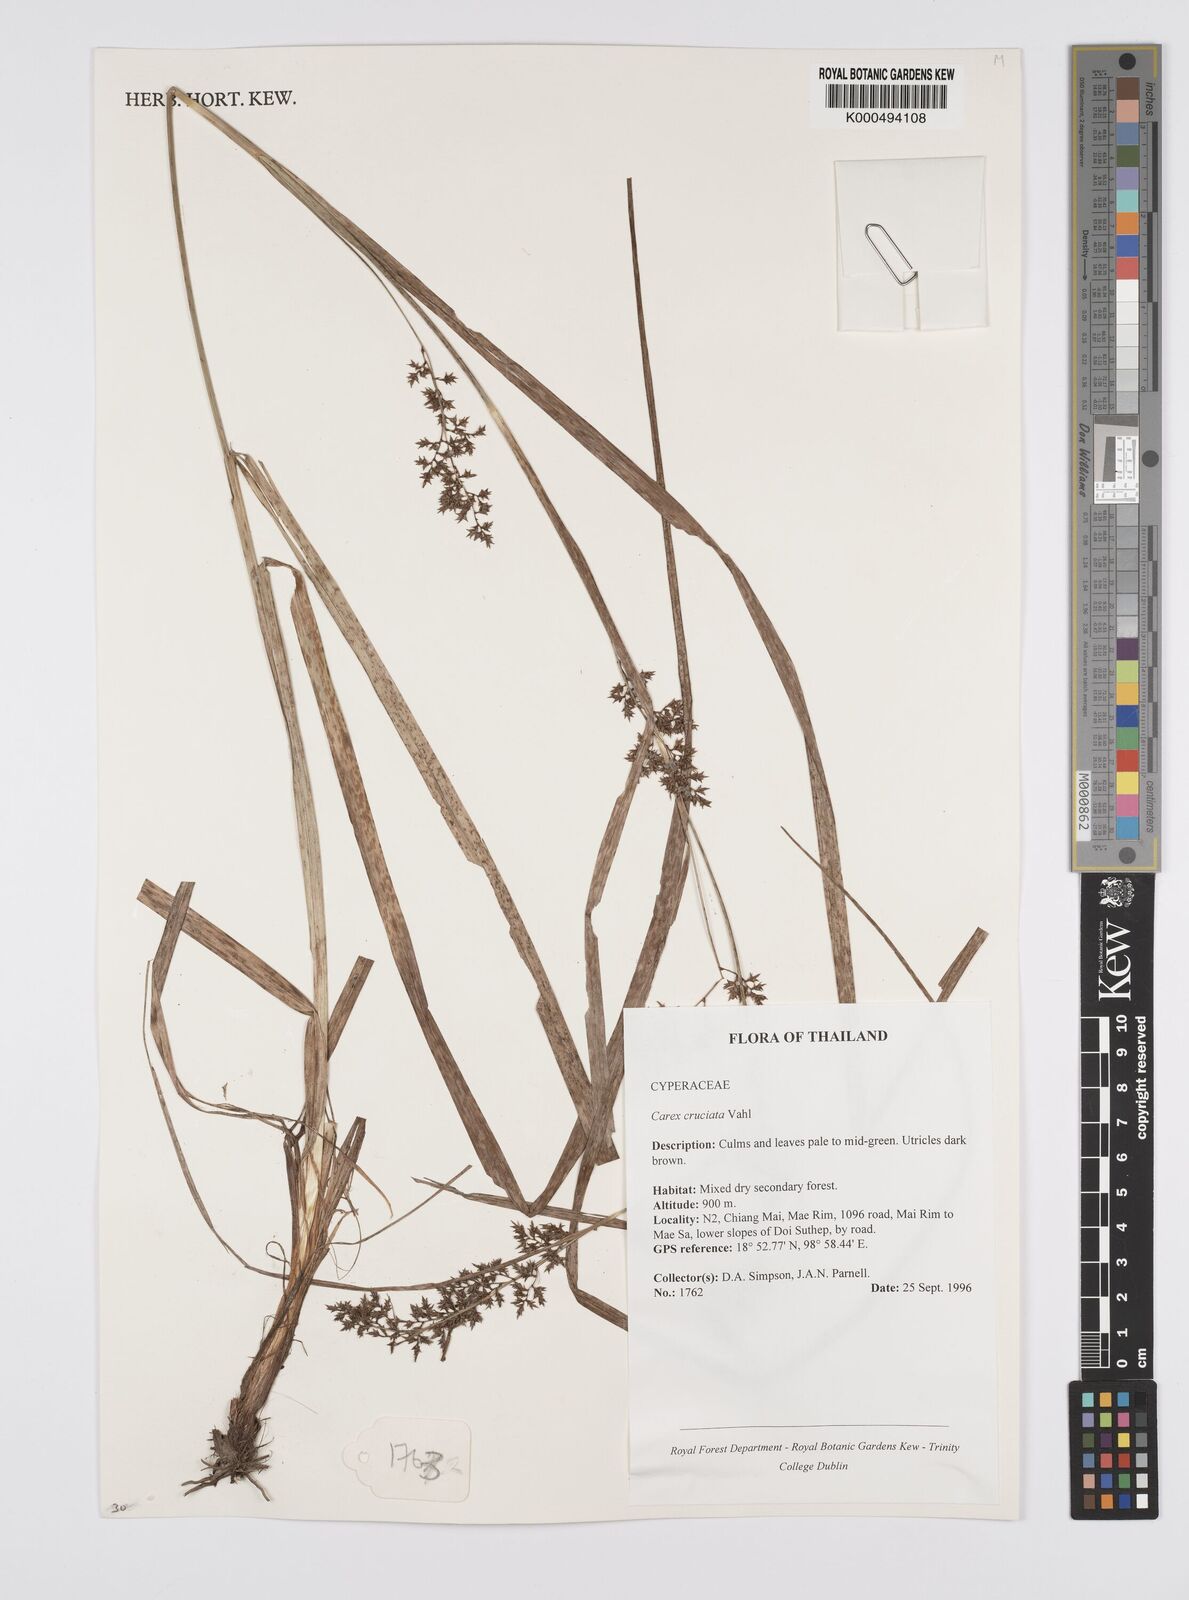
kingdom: Plantae
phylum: Tracheophyta
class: Liliopsida
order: Poales
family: Cyperaceae
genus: Carex
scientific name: Carex
